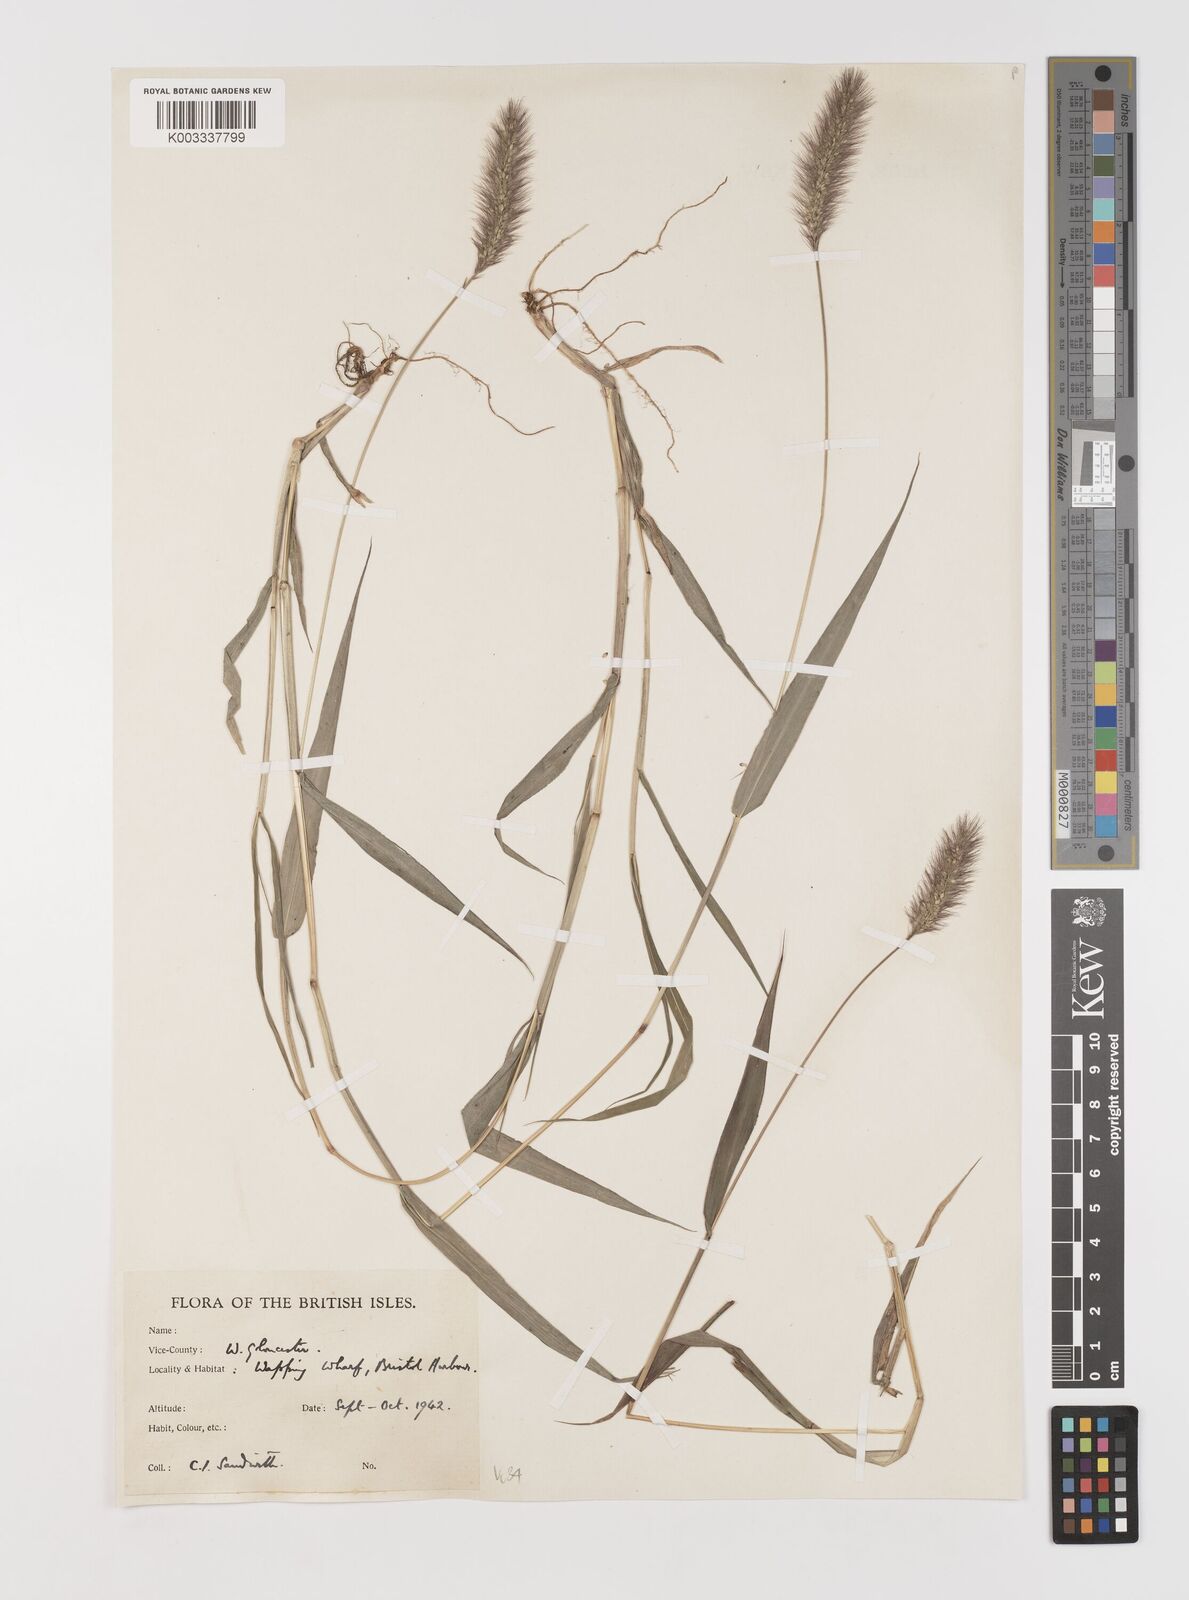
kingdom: Plantae
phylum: Tracheophyta
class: Liliopsida
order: Poales
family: Poaceae
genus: Setaria
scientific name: Setaria viridis
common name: Green bristlegrass
